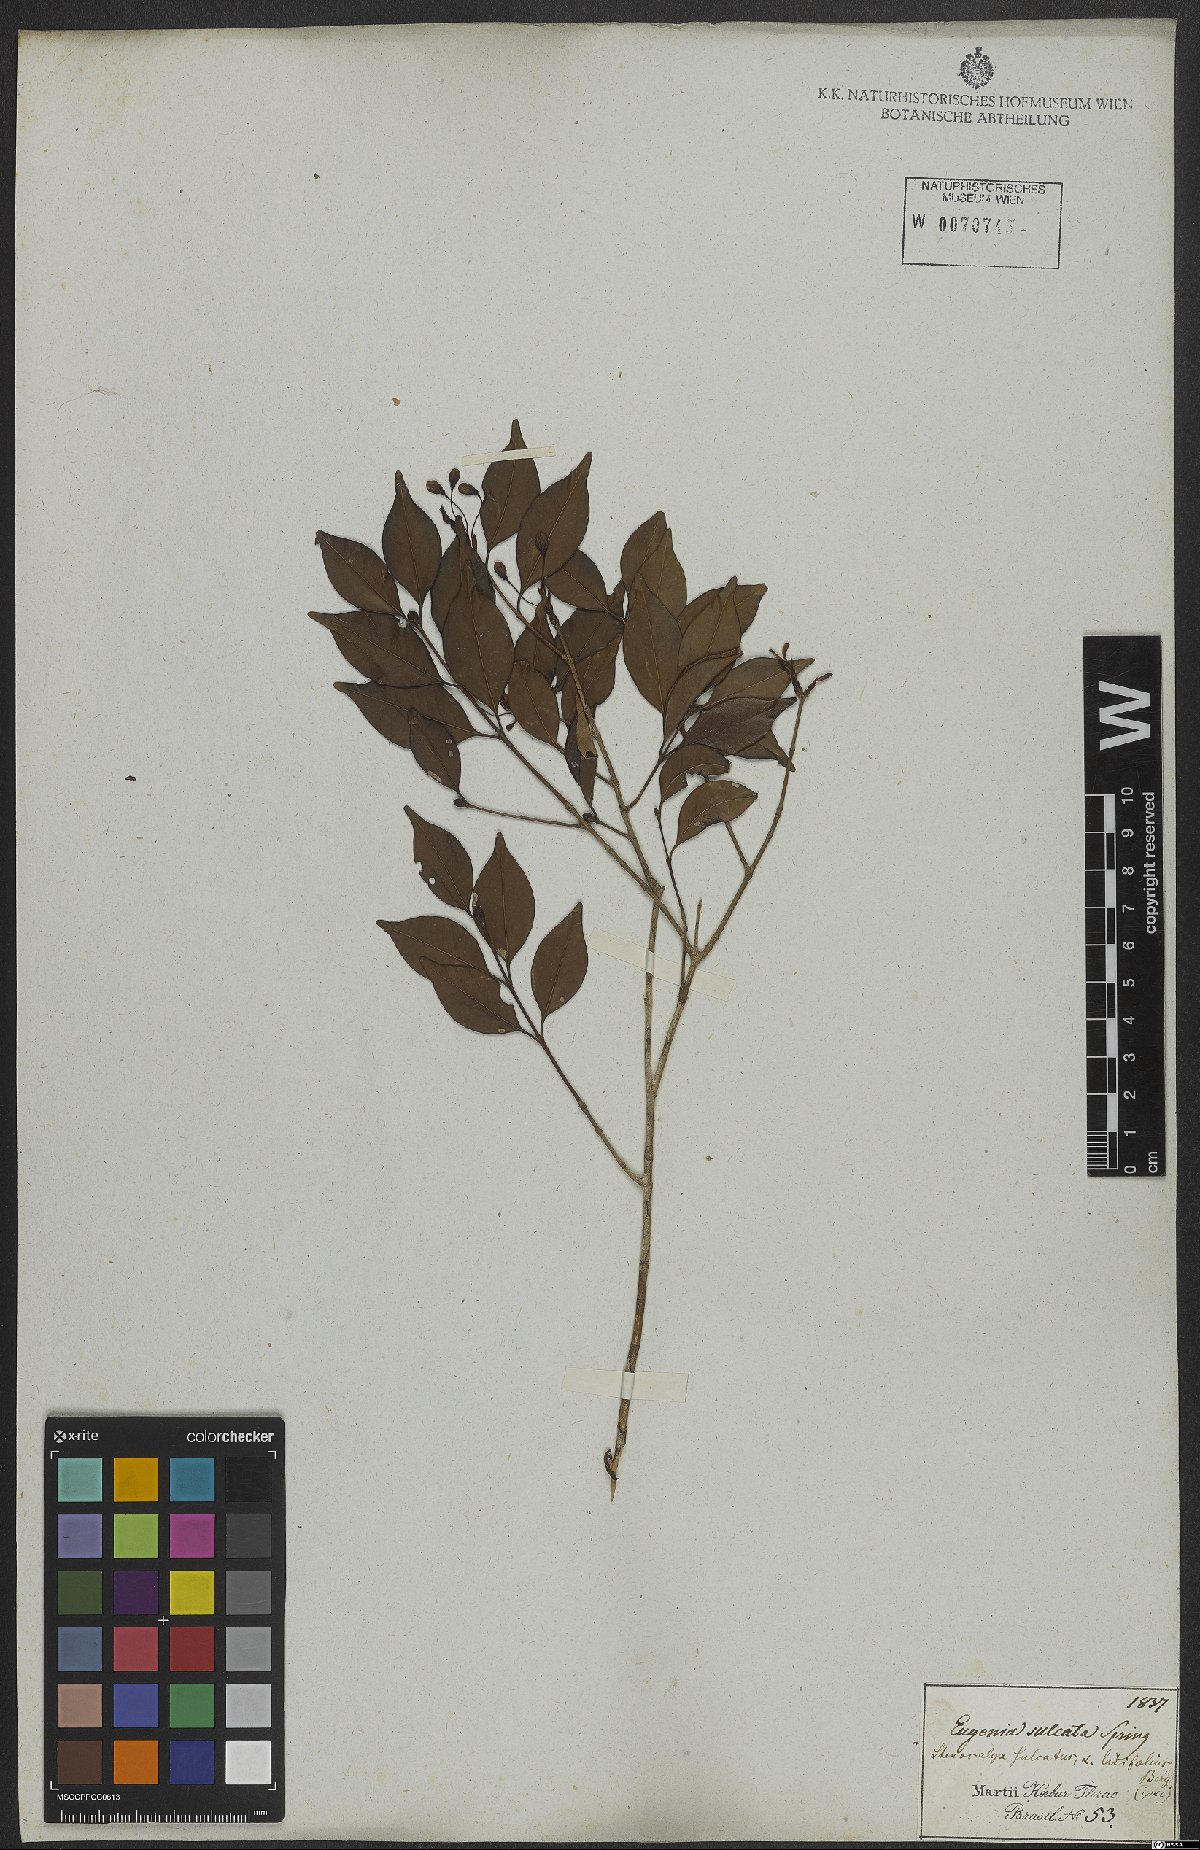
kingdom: Plantae
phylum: Tracheophyta
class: Magnoliopsida
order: Myrtales
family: Myrtaceae
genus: Eugenia
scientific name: Eugenia sulcata
